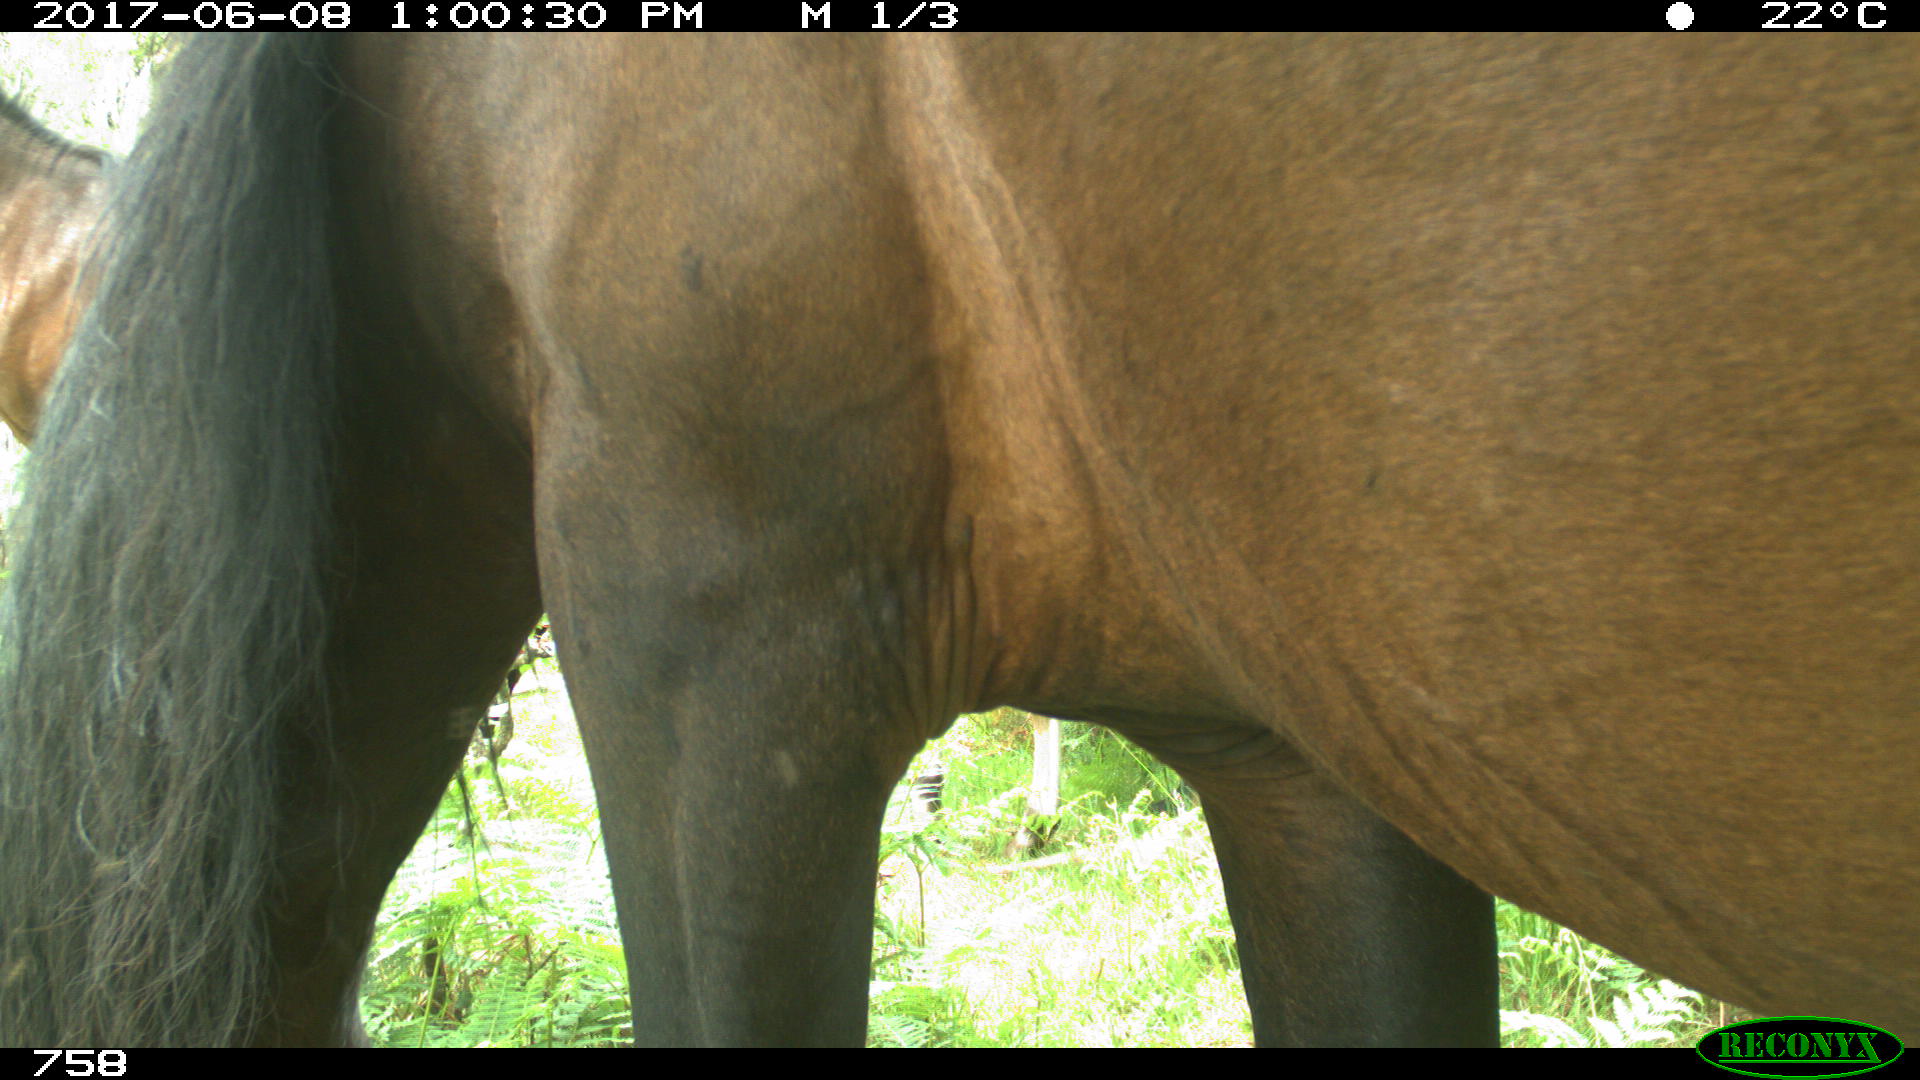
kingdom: Animalia
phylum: Chordata
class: Mammalia
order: Perissodactyla
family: Equidae
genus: Equus
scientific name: Equus caballus
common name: Horse
